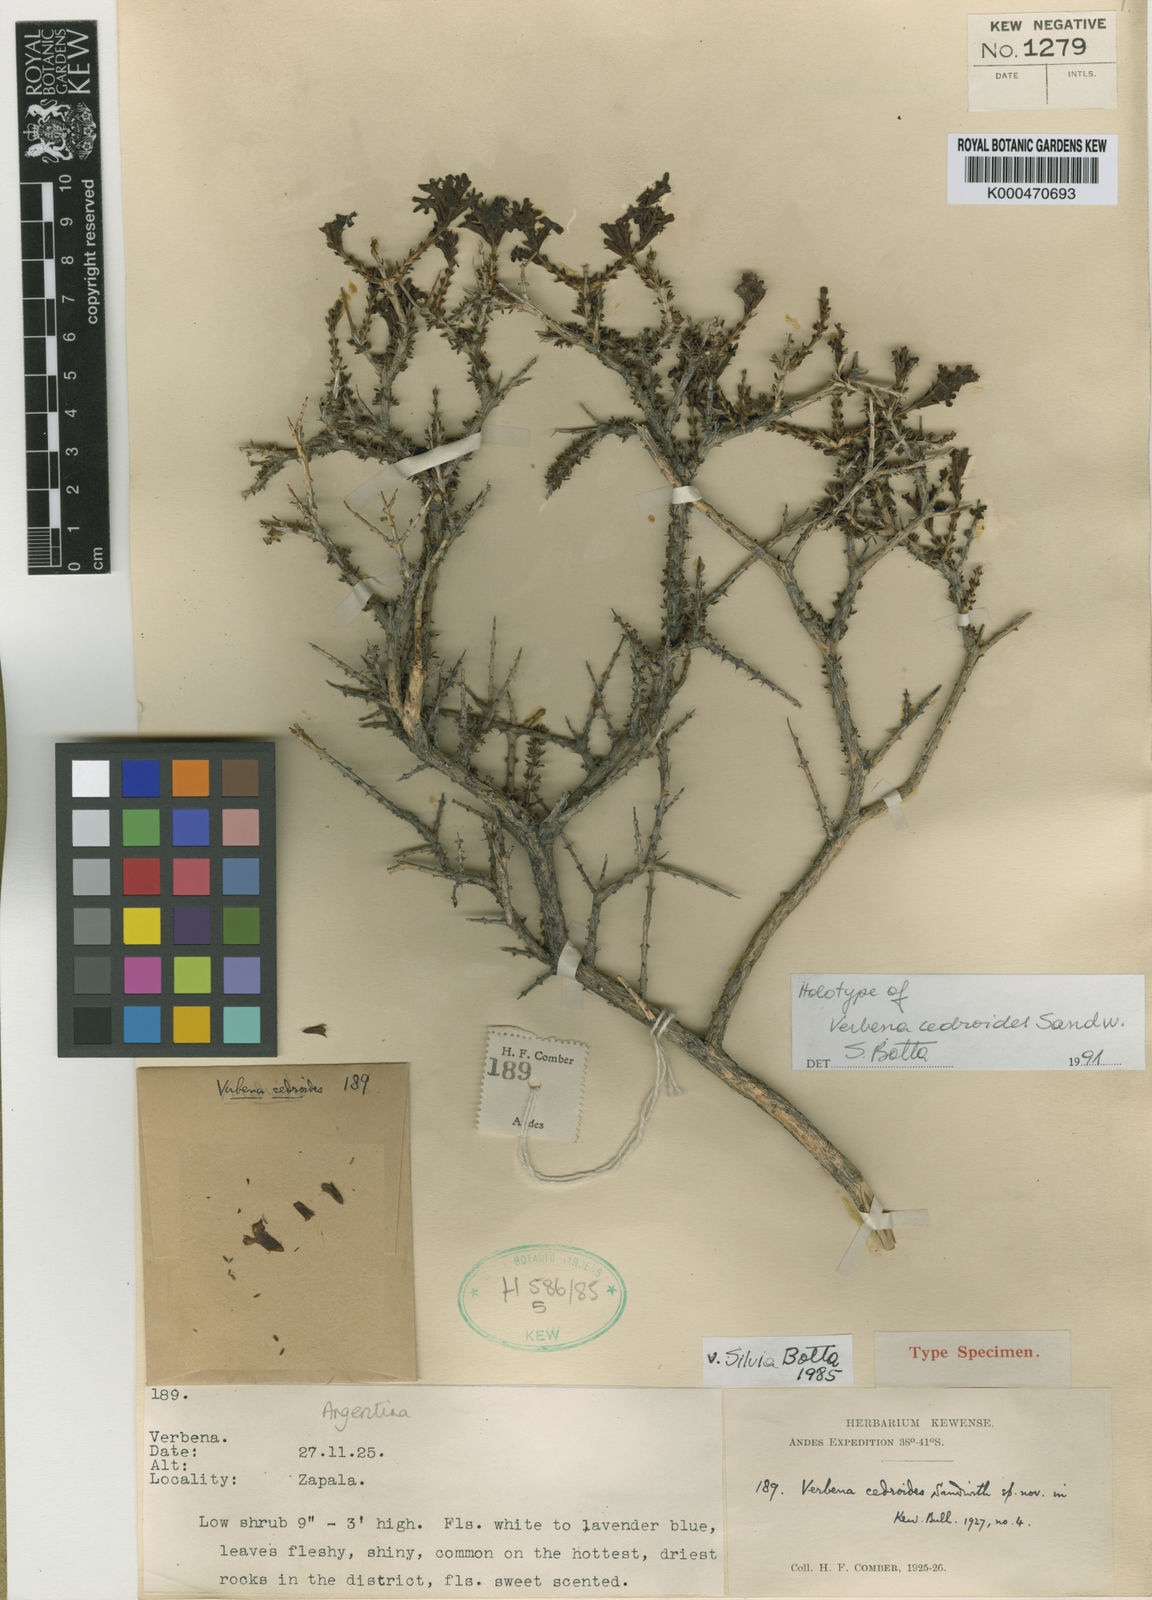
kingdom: Plantae
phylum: Tracheophyta
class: Magnoliopsida
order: Lamiales
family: Verbenaceae
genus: Mulguraea
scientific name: Mulguraea cedroides
